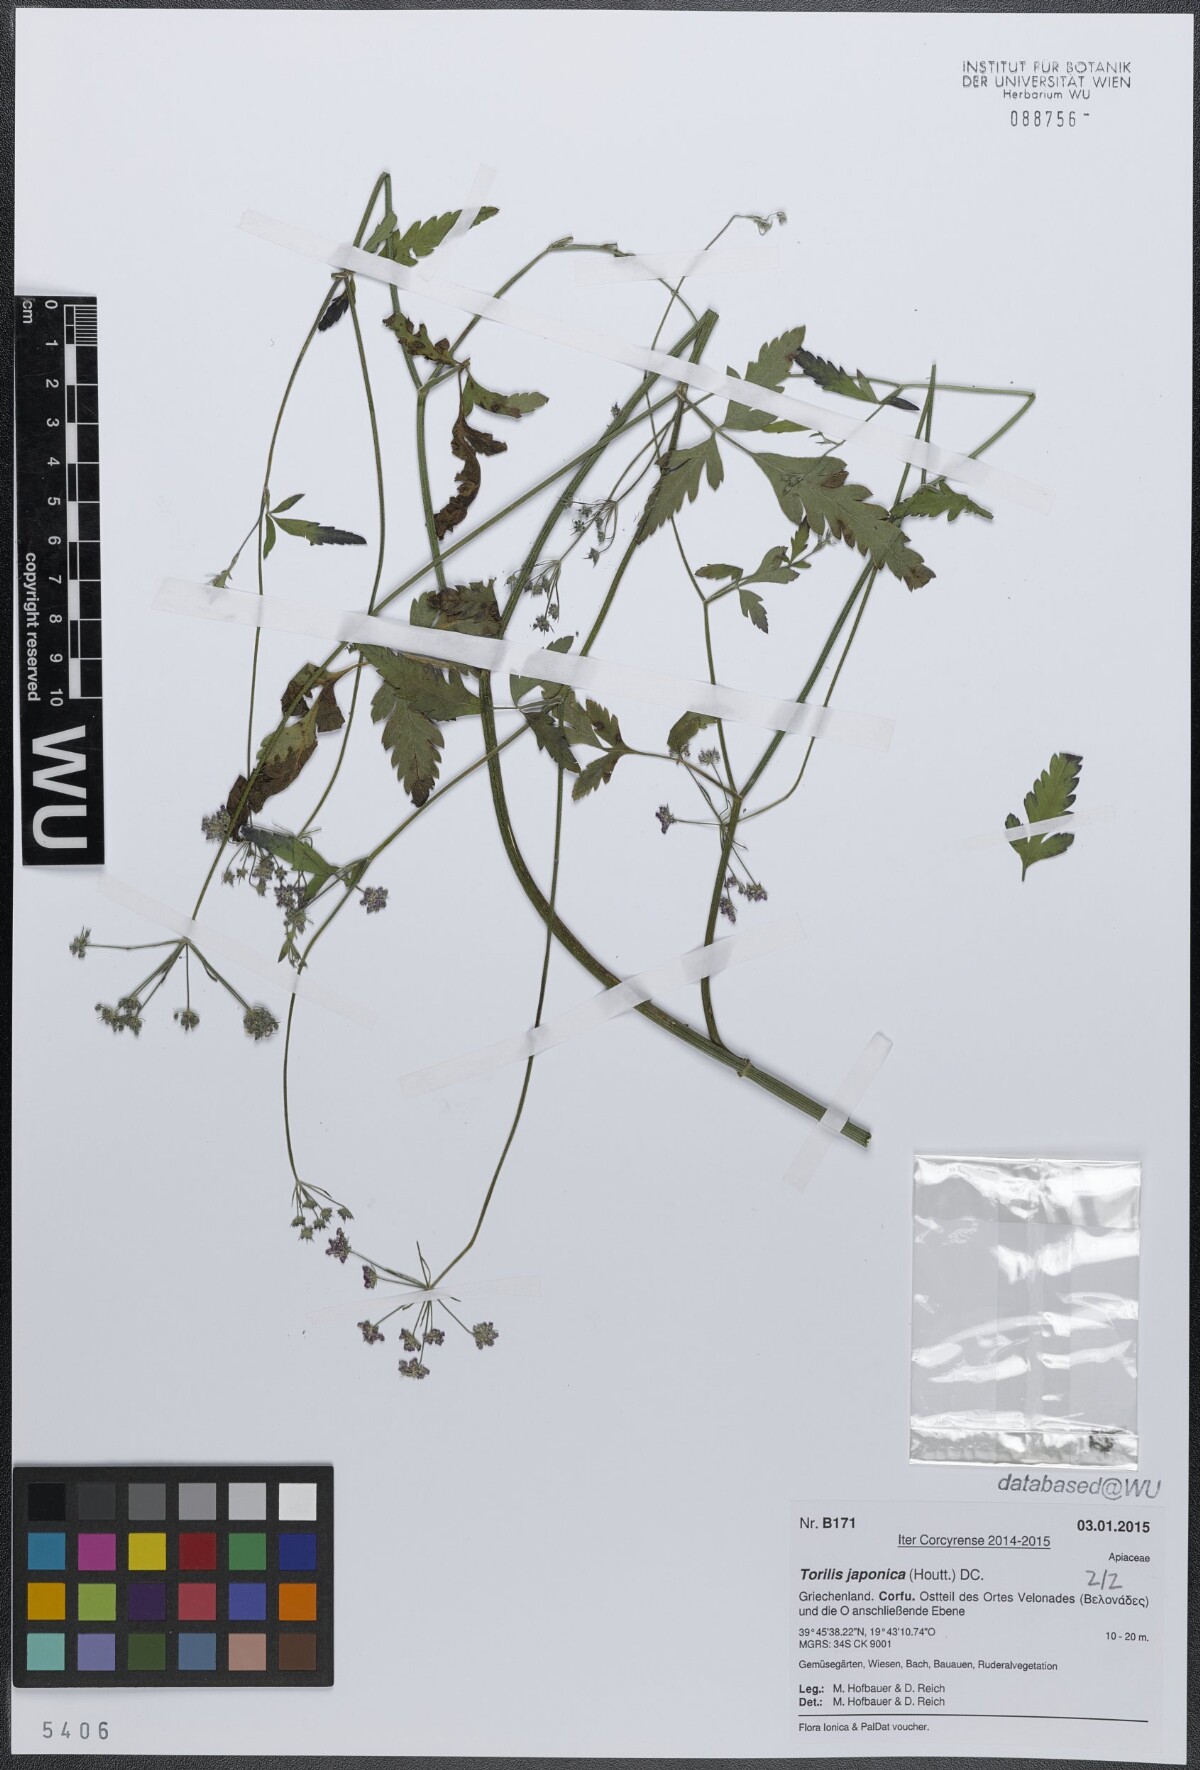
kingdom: Plantae
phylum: Tracheophyta
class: Magnoliopsida
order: Apiales
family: Apiaceae
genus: Torilis
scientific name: Torilis japonica
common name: Upright hedge-parsley
